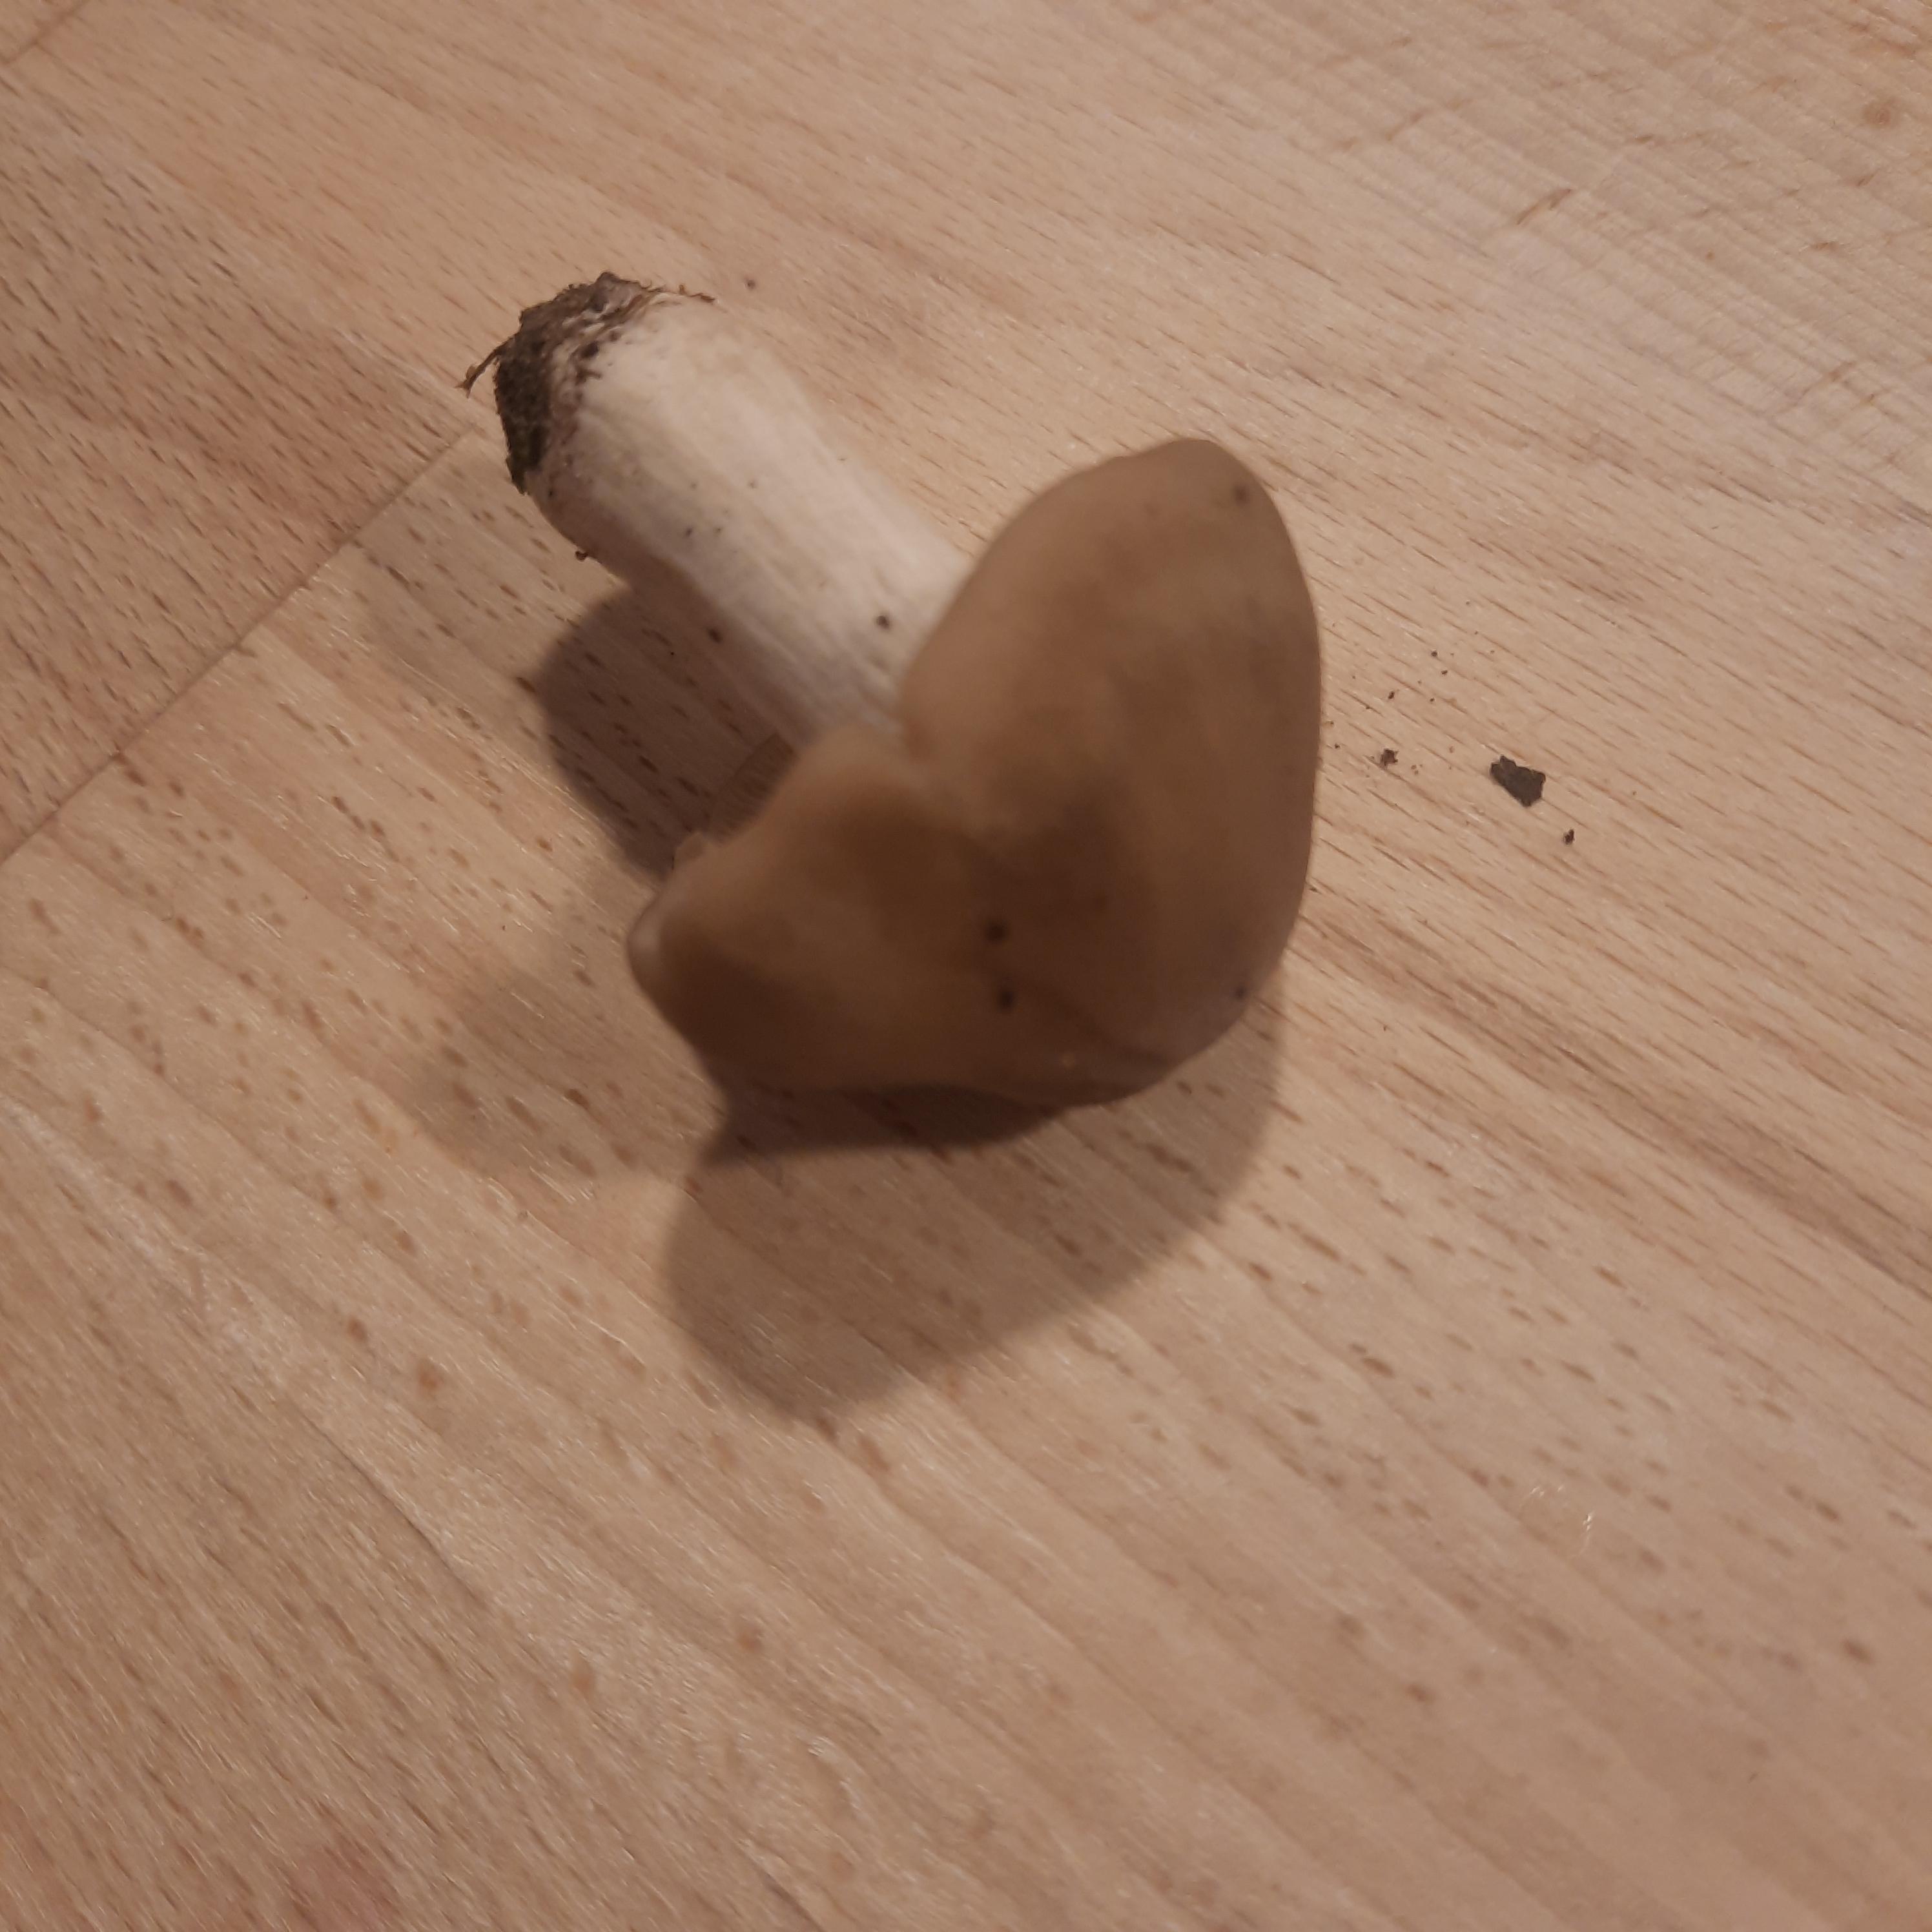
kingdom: Fungi
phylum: Basidiomycota
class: Agaricomycetes
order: Agaricales
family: Entolomataceae
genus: Entoloma
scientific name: Entoloma lividoalbum
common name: lysstokket rødblad
